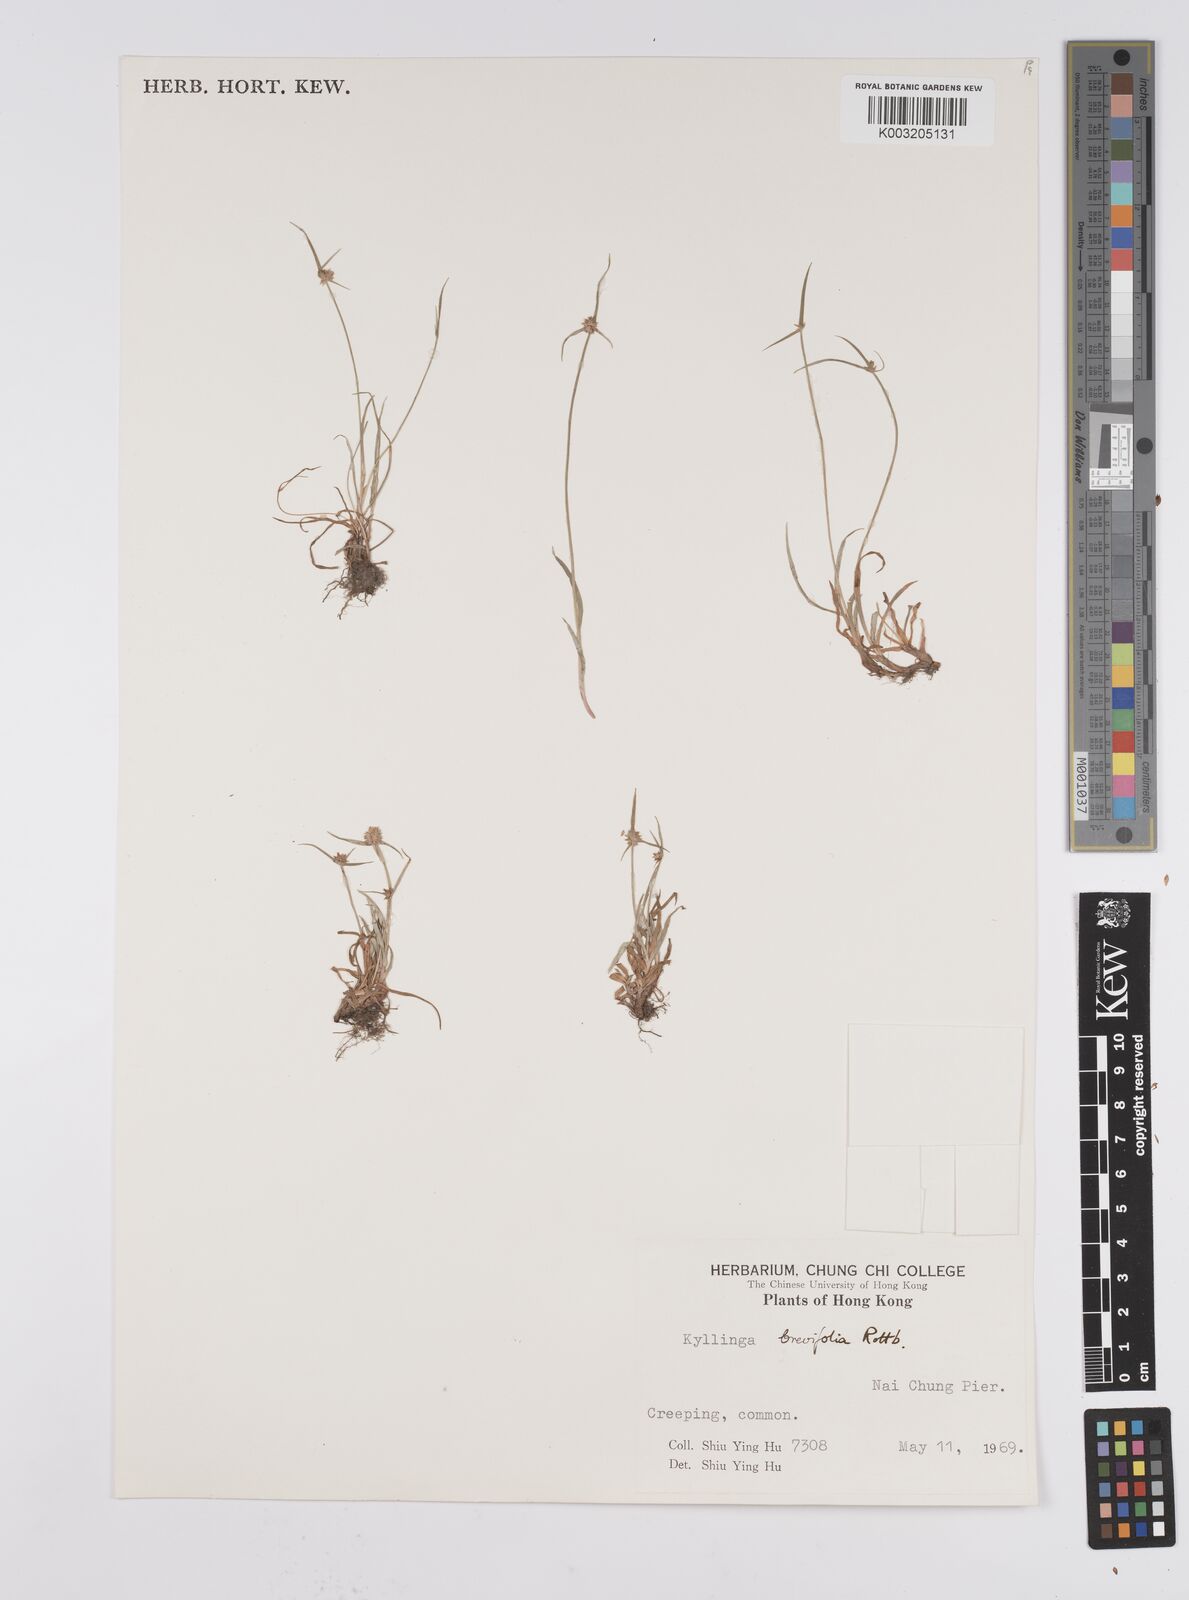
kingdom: Plantae
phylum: Tracheophyta
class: Liliopsida
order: Poales
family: Cyperaceae
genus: Cyperus
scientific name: Cyperus brevifolius
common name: Globe kyllinga
